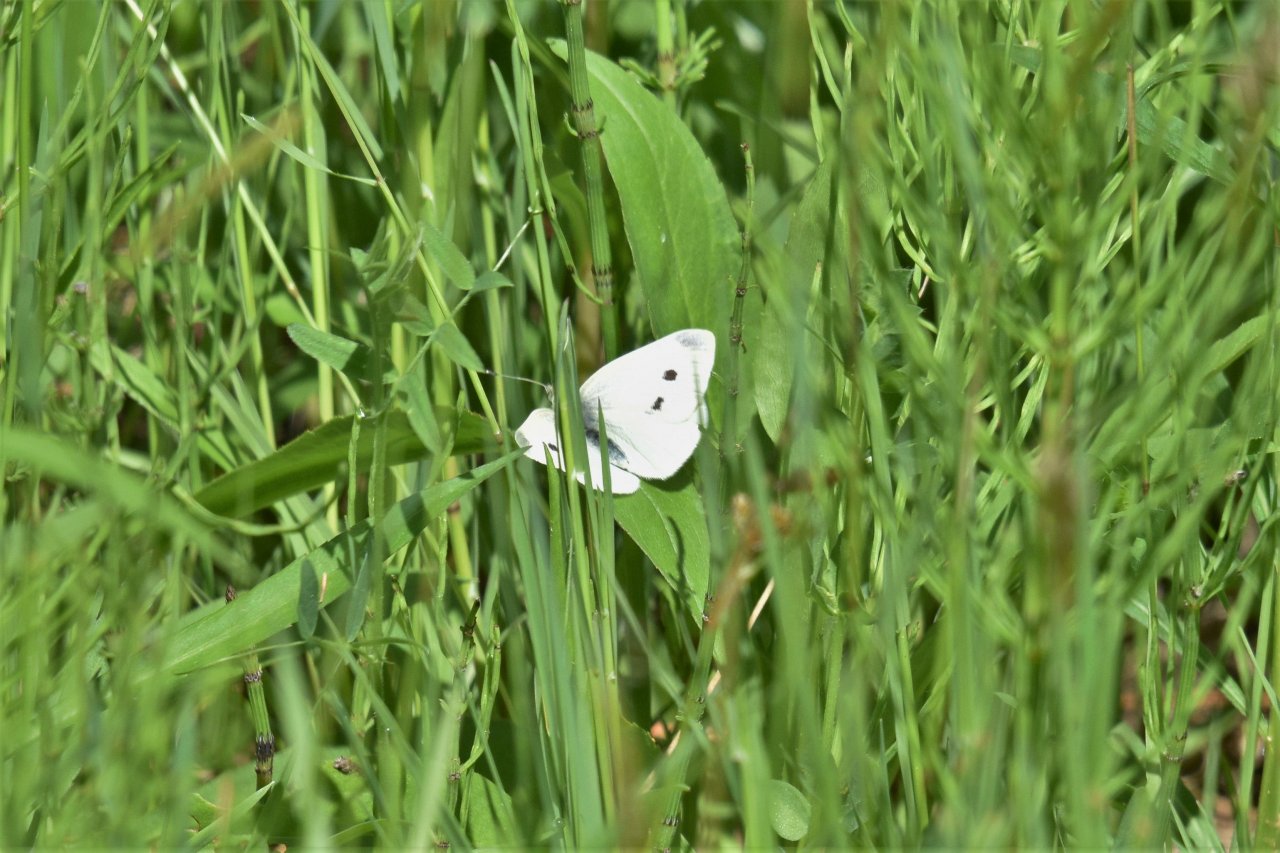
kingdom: Animalia
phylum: Arthropoda
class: Insecta
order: Lepidoptera
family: Pieridae
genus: Pieris
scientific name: Pieris rapae
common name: Cabbage White
